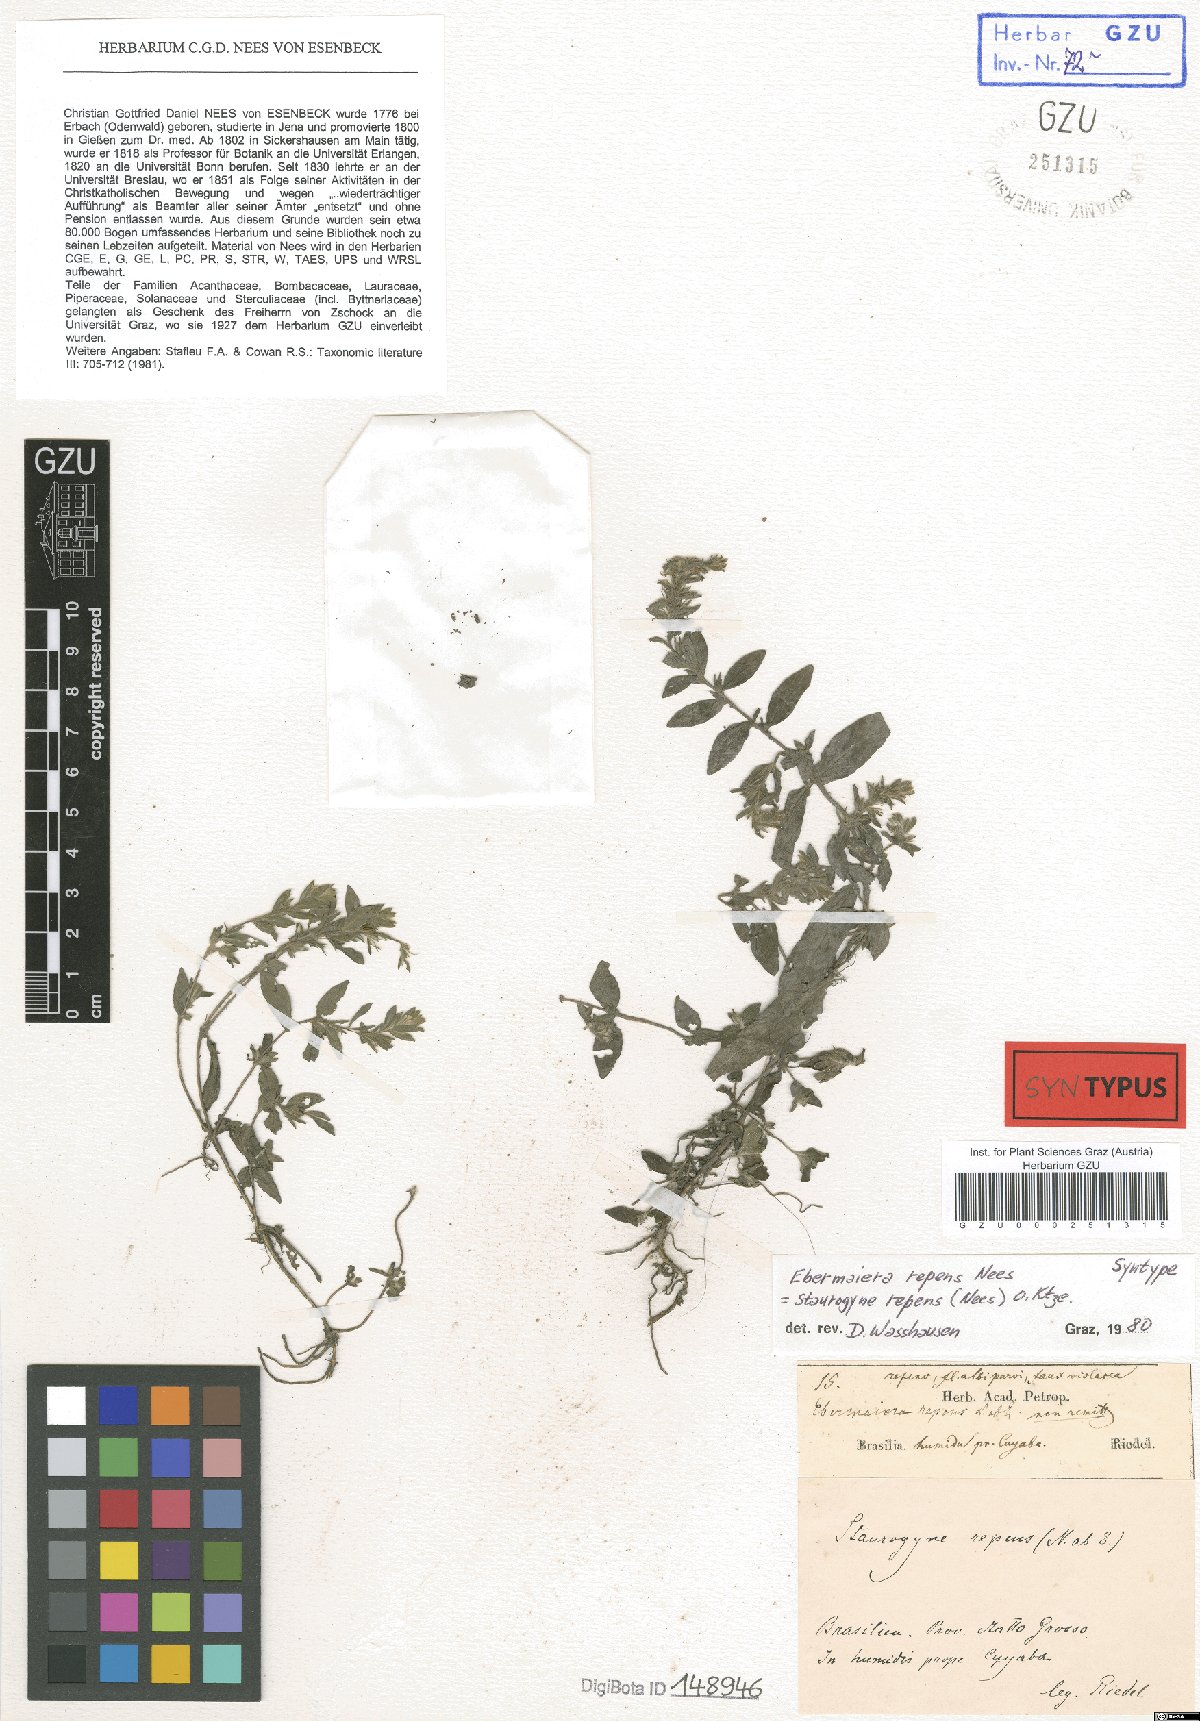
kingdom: Plantae
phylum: Tracheophyta
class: Magnoliopsida
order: Lamiales
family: Acanthaceae
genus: Staurogyne
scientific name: Staurogyne repens
